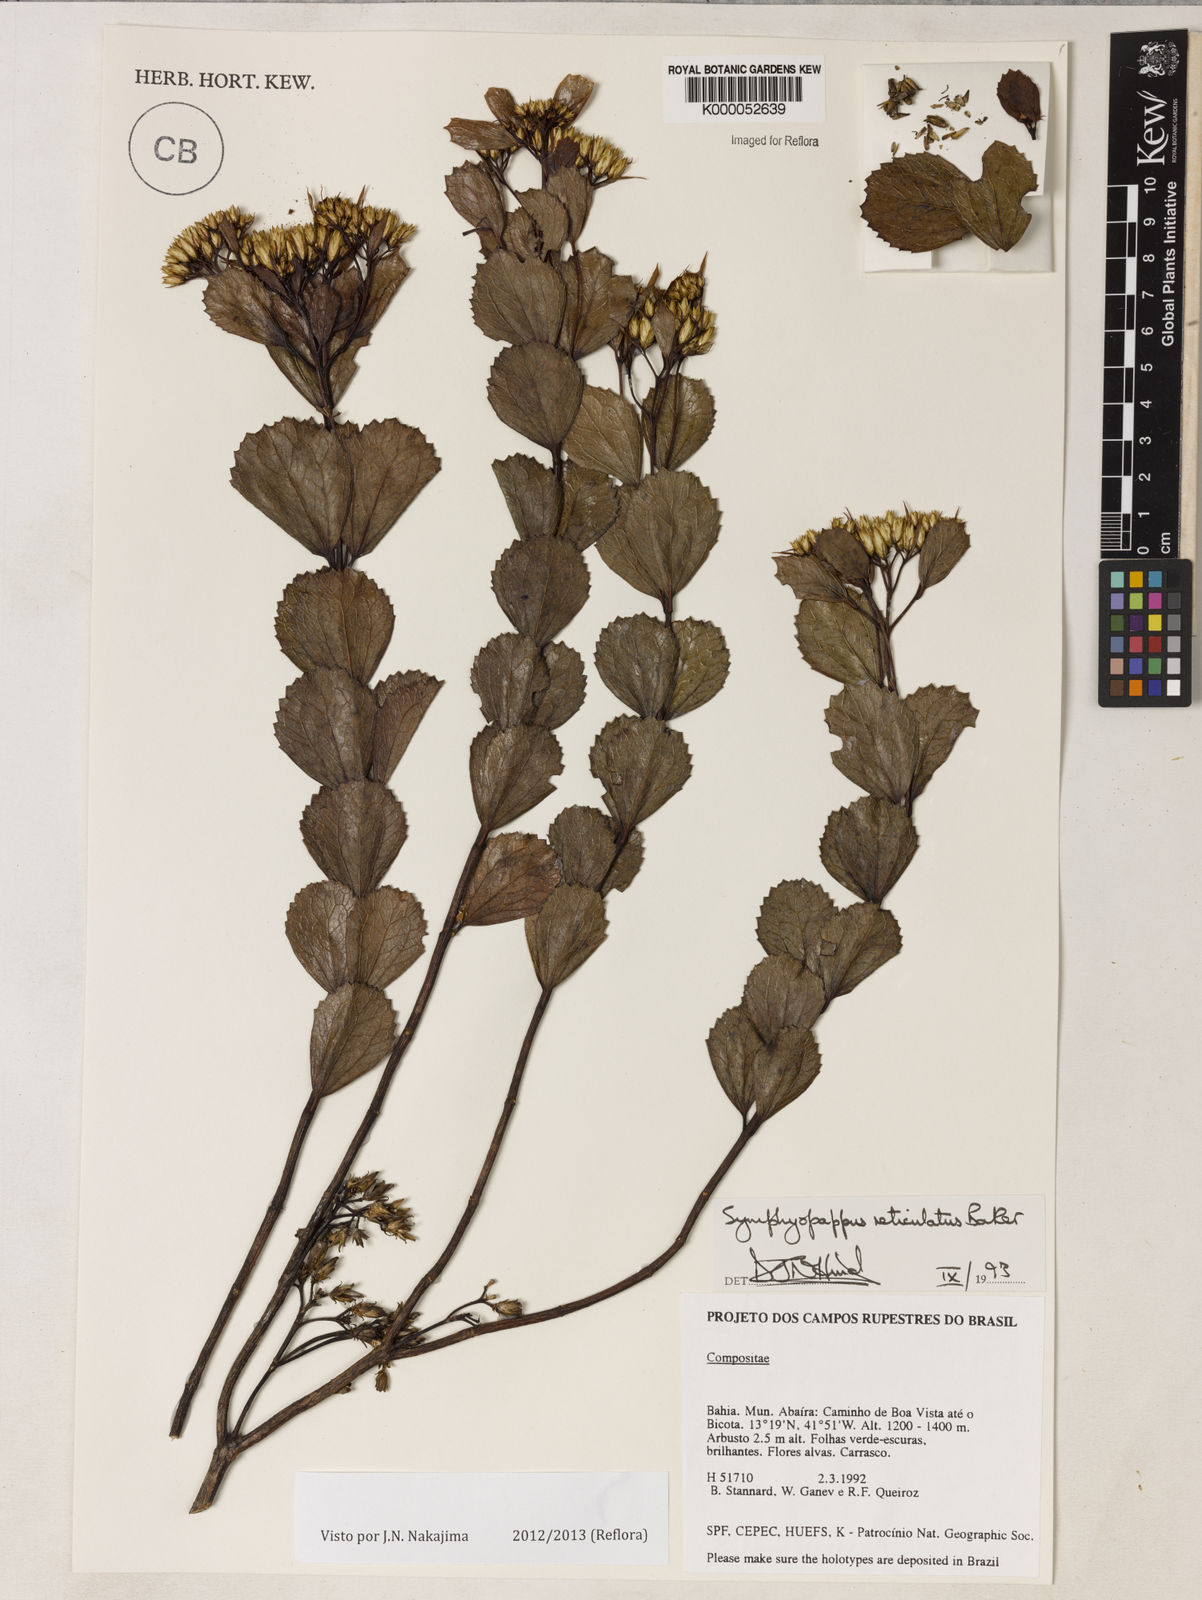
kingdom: Plantae
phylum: Tracheophyta
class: Magnoliopsida
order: Asterales
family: Asteraceae
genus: Symphyopappus
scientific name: Symphyopappus reticulatus
